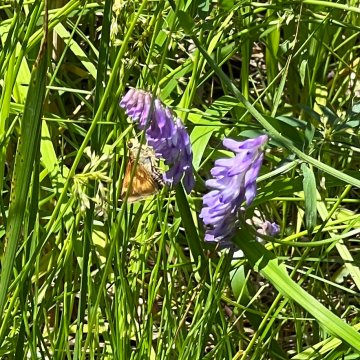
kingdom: Animalia
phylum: Arthropoda
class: Insecta
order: Lepidoptera
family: Hesperiidae
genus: Polites
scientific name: Polites
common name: Long Dash Skipper
